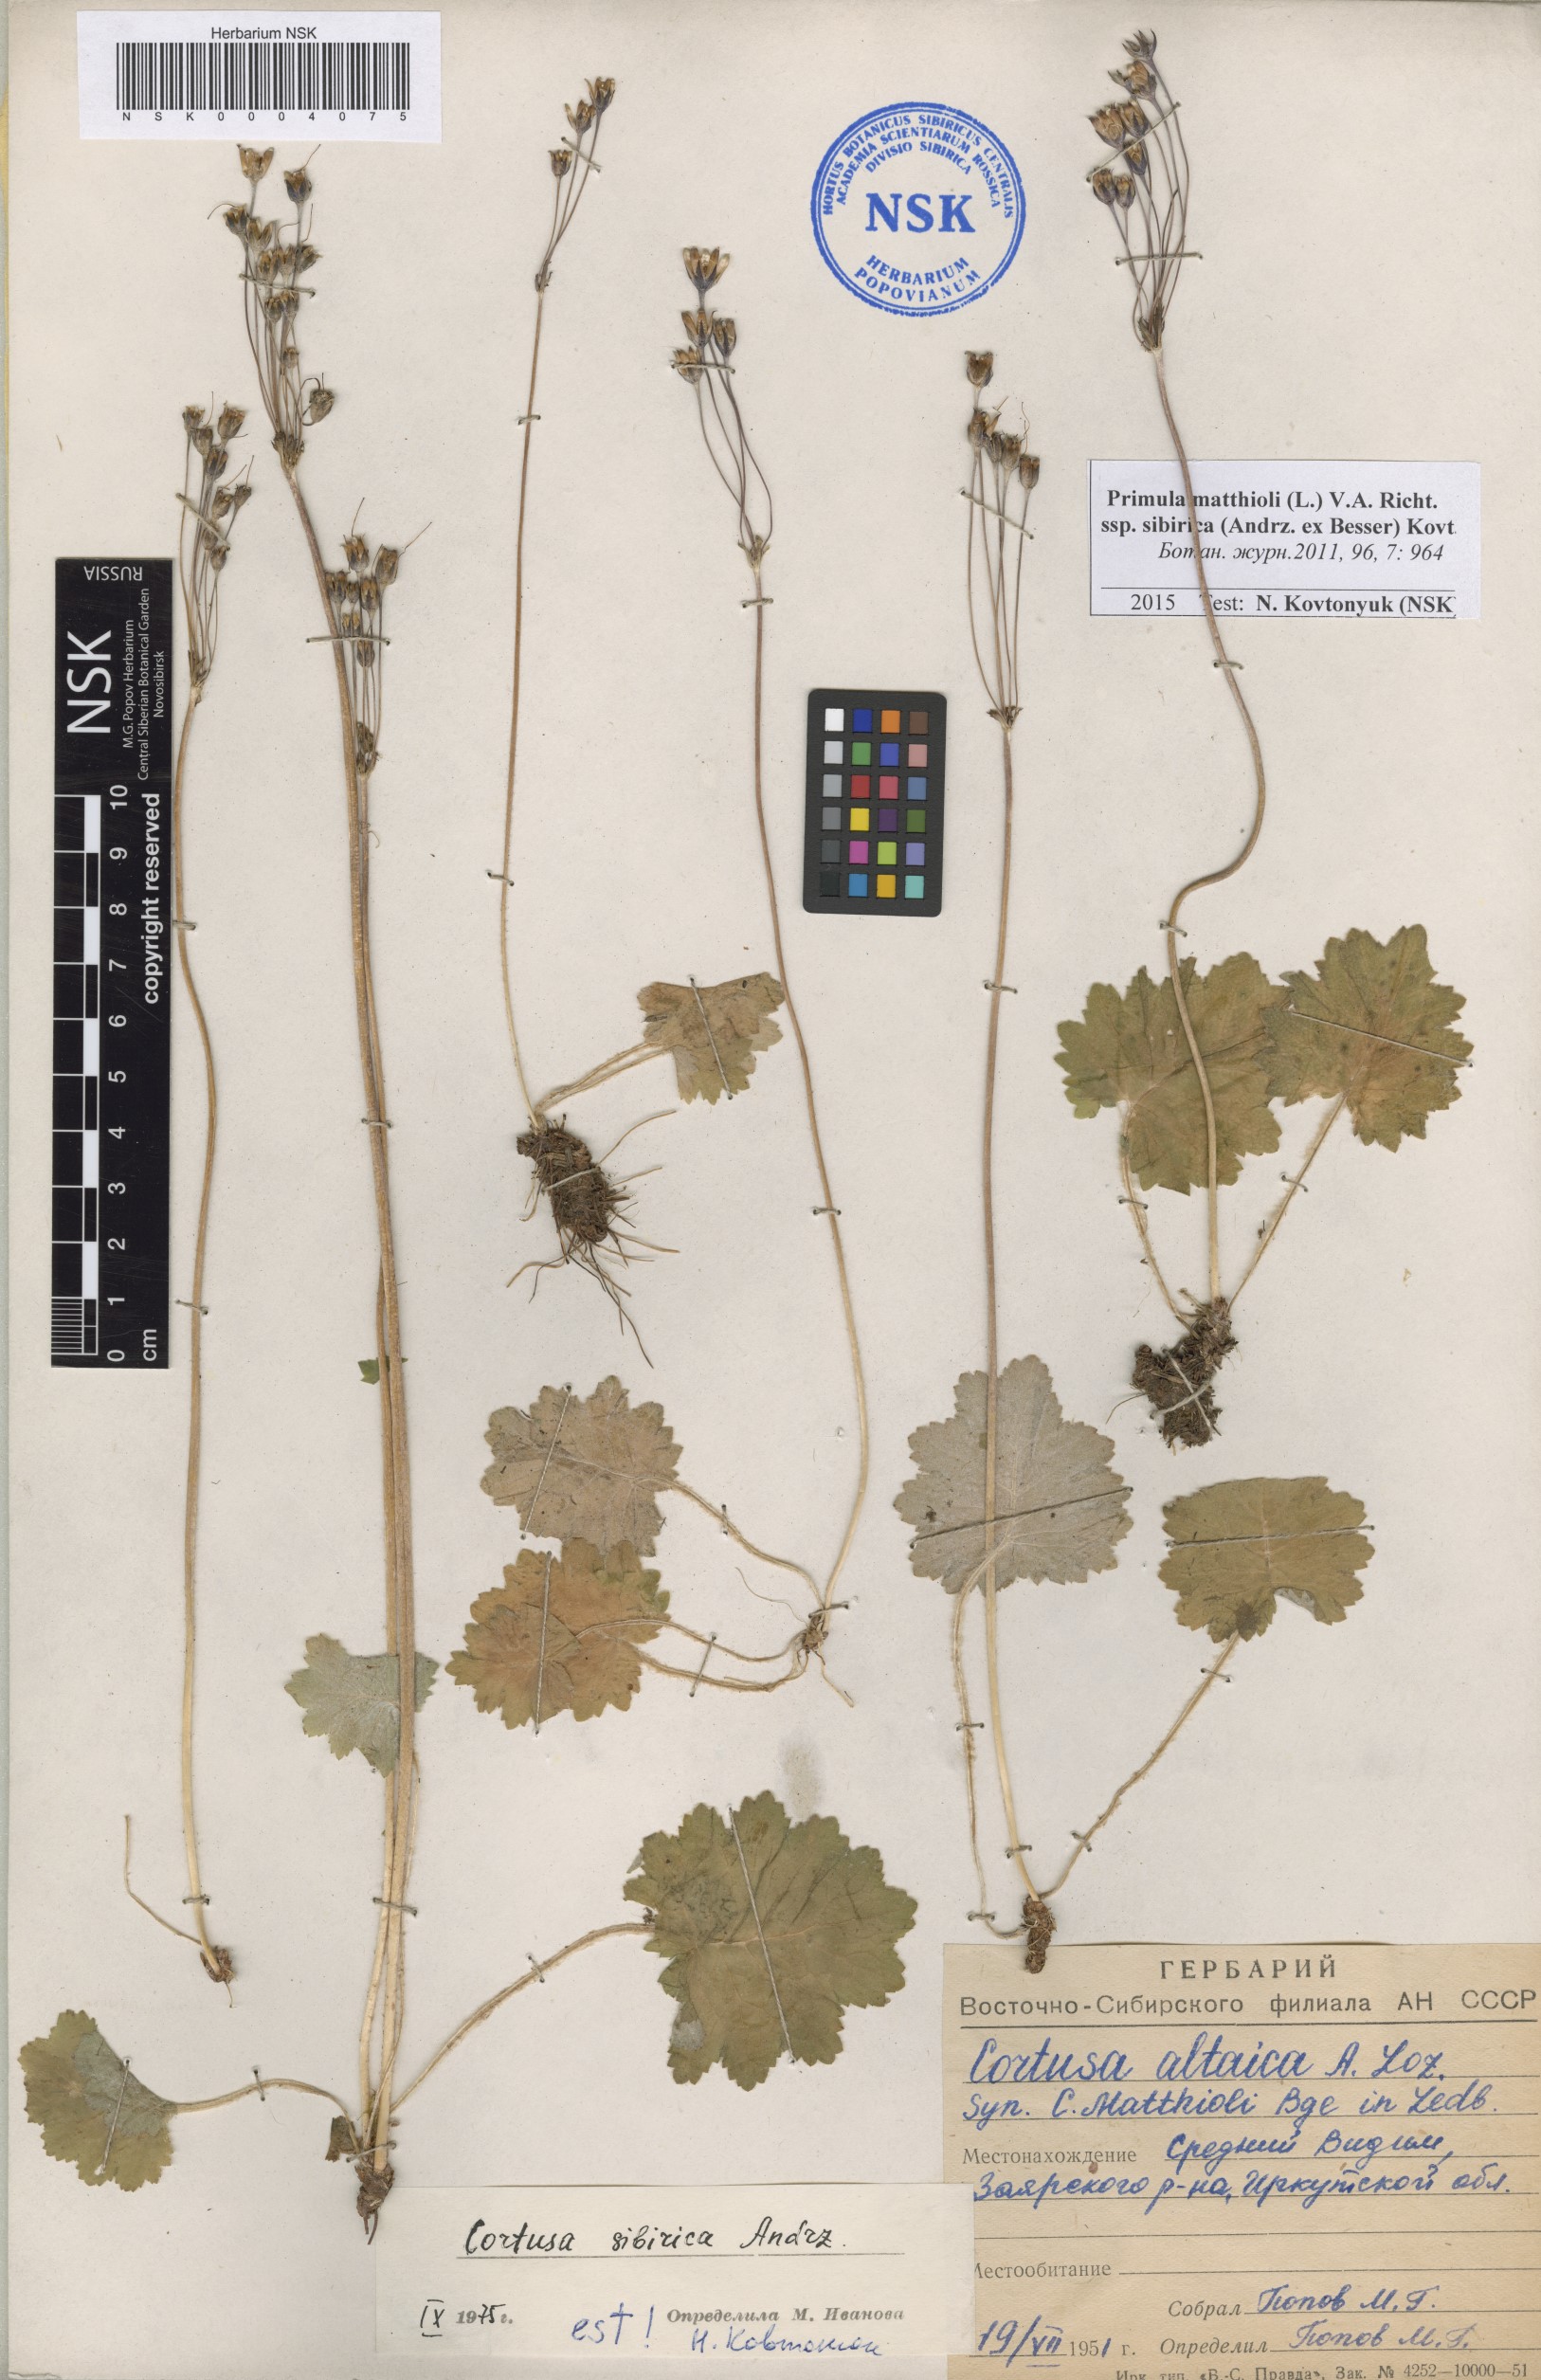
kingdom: Plantae
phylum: Tracheophyta
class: Magnoliopsida
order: Ericales
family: Primulaceae
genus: Primula
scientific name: Primula matthioli
